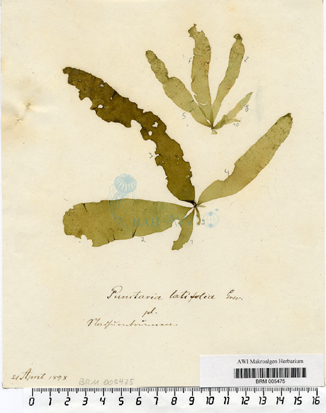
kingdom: Chromista
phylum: Ochrophyta
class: Phaeophyceae
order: Ectocarpales
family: Chordariaceae
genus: Punctaria
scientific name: Punctaria latifolia
